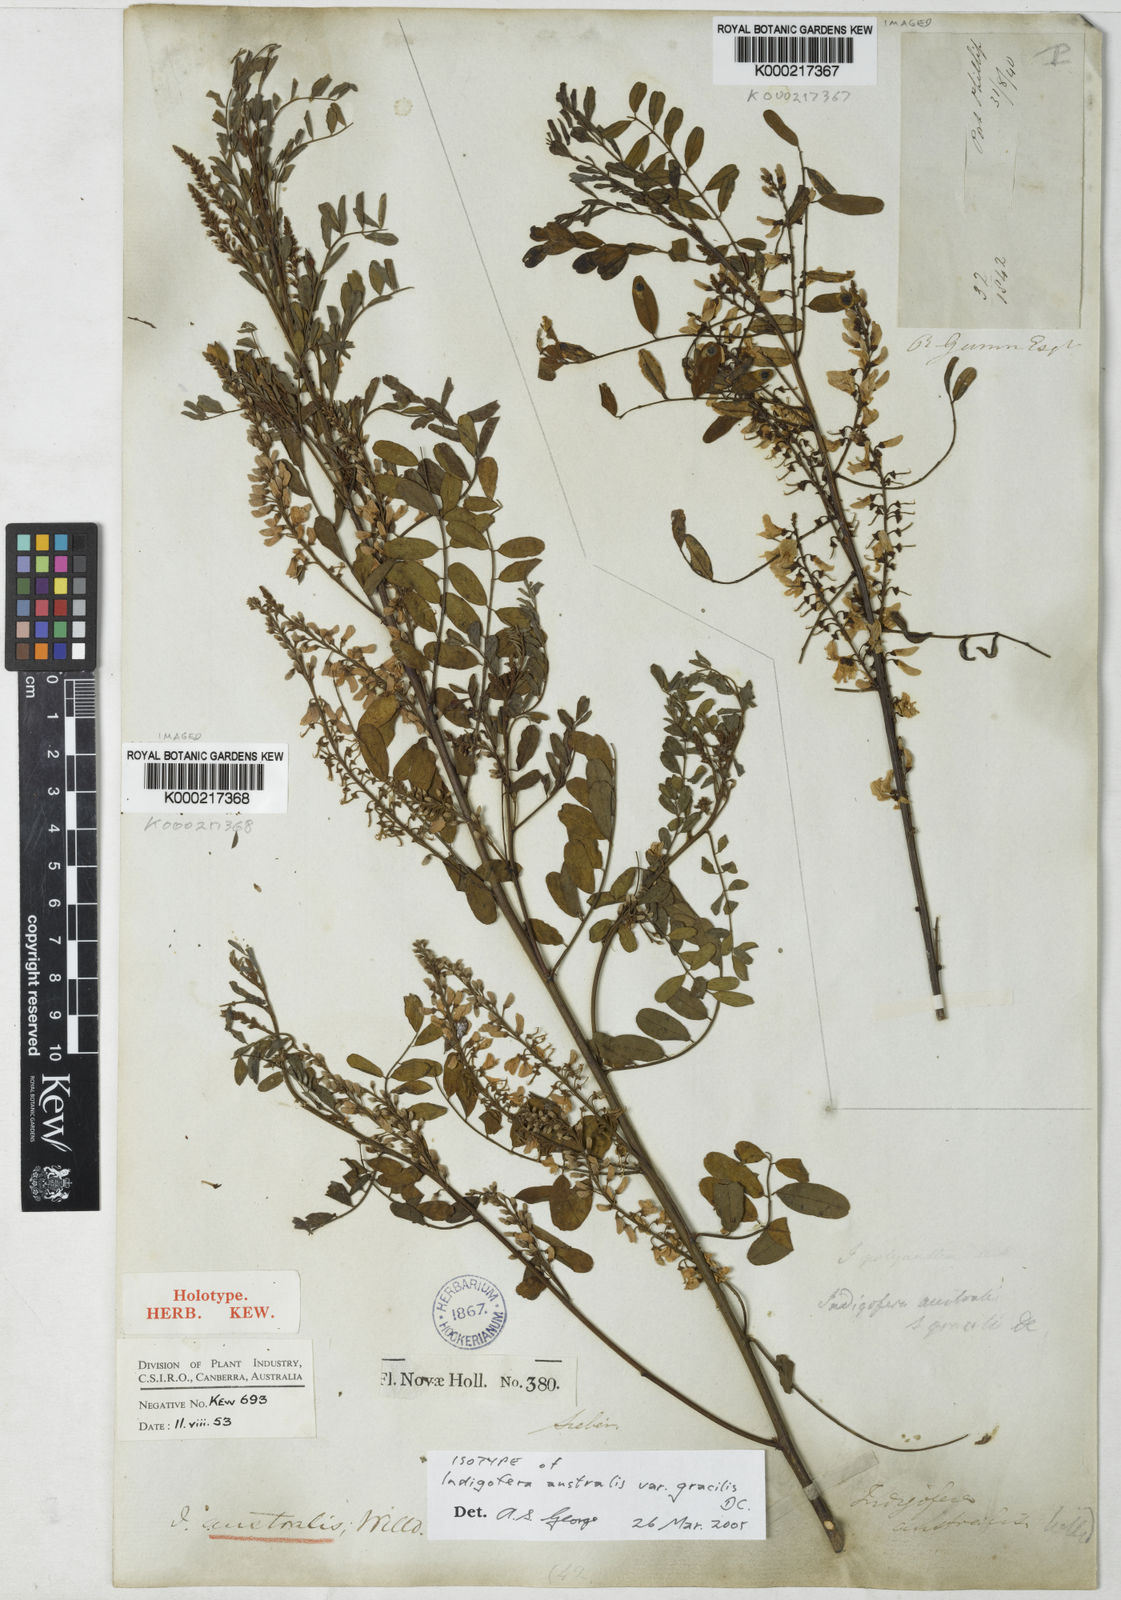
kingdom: Plantae
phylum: Tracheophyta
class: Magnoliopsida
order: Fabales
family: Fabaceae
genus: Indigofera
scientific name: Indigofera australis
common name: Australian indigo
